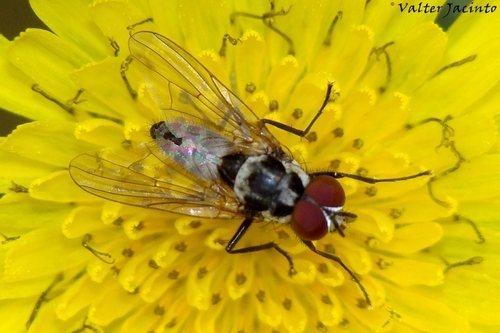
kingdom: Animalia
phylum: Arthropoda
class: Insecta
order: Diptera
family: Anthomyiidae
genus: Anthomyia
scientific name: Anthomyia quinquemaculata
